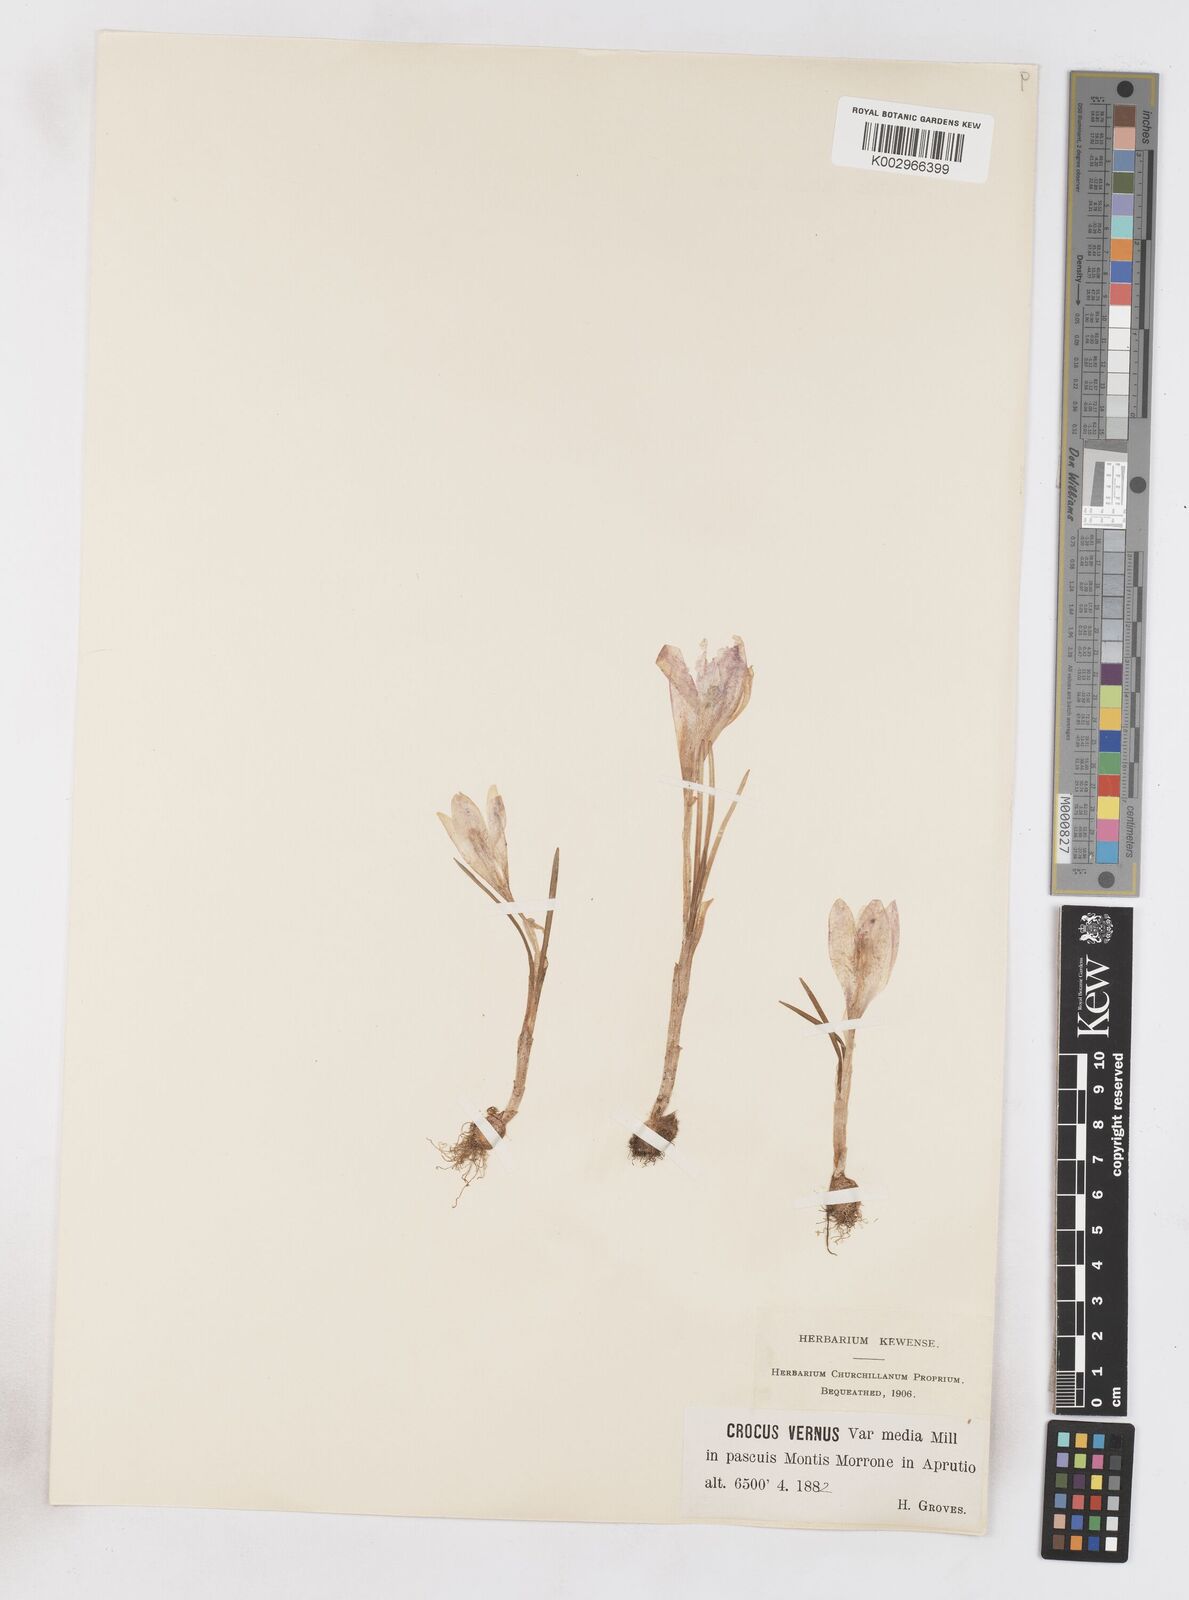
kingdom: Plantae
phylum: Tracheophyta
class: Liliopsida
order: Asparagales
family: Iridaceae
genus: Crocus
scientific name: Crocus vernus
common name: Spring crocus
